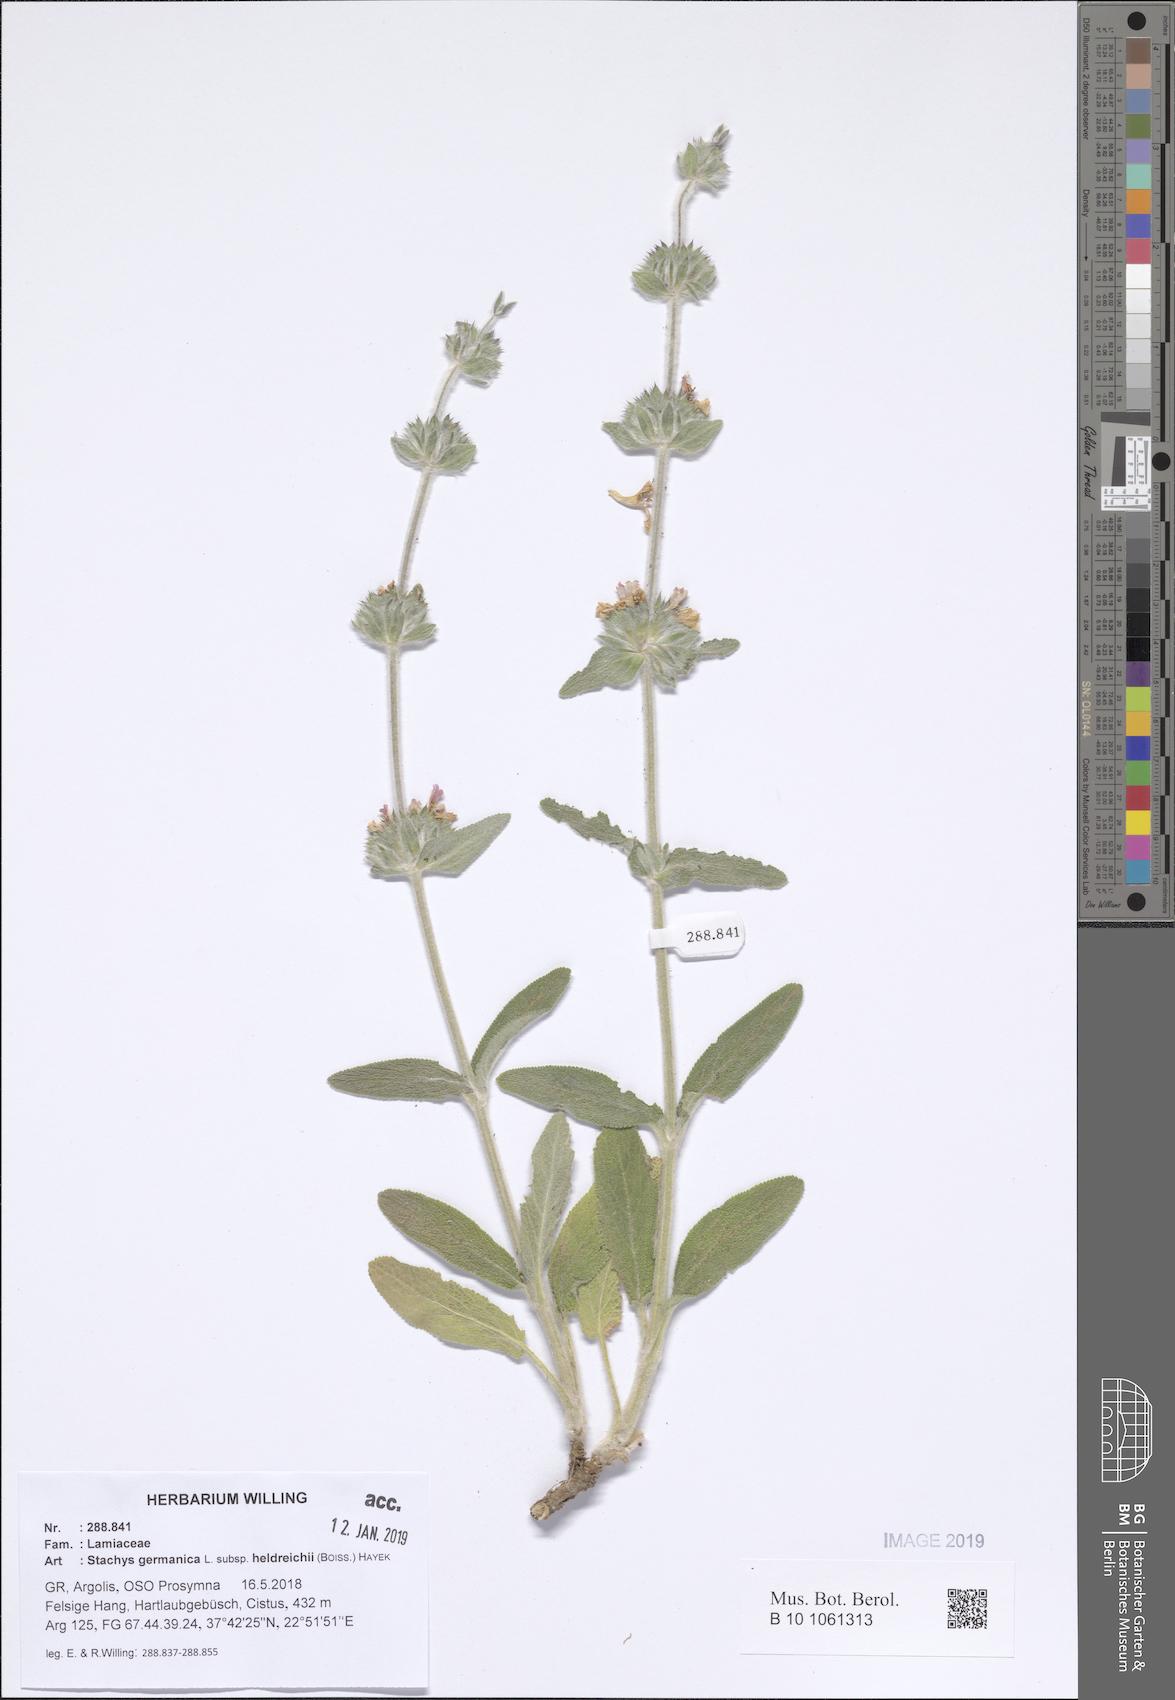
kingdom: Plantae
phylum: Tracheophyta
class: Magnoliopsida
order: Lamiales
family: Lamiaceae
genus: Stachys
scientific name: Stachys germanica
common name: Downy woundwort
